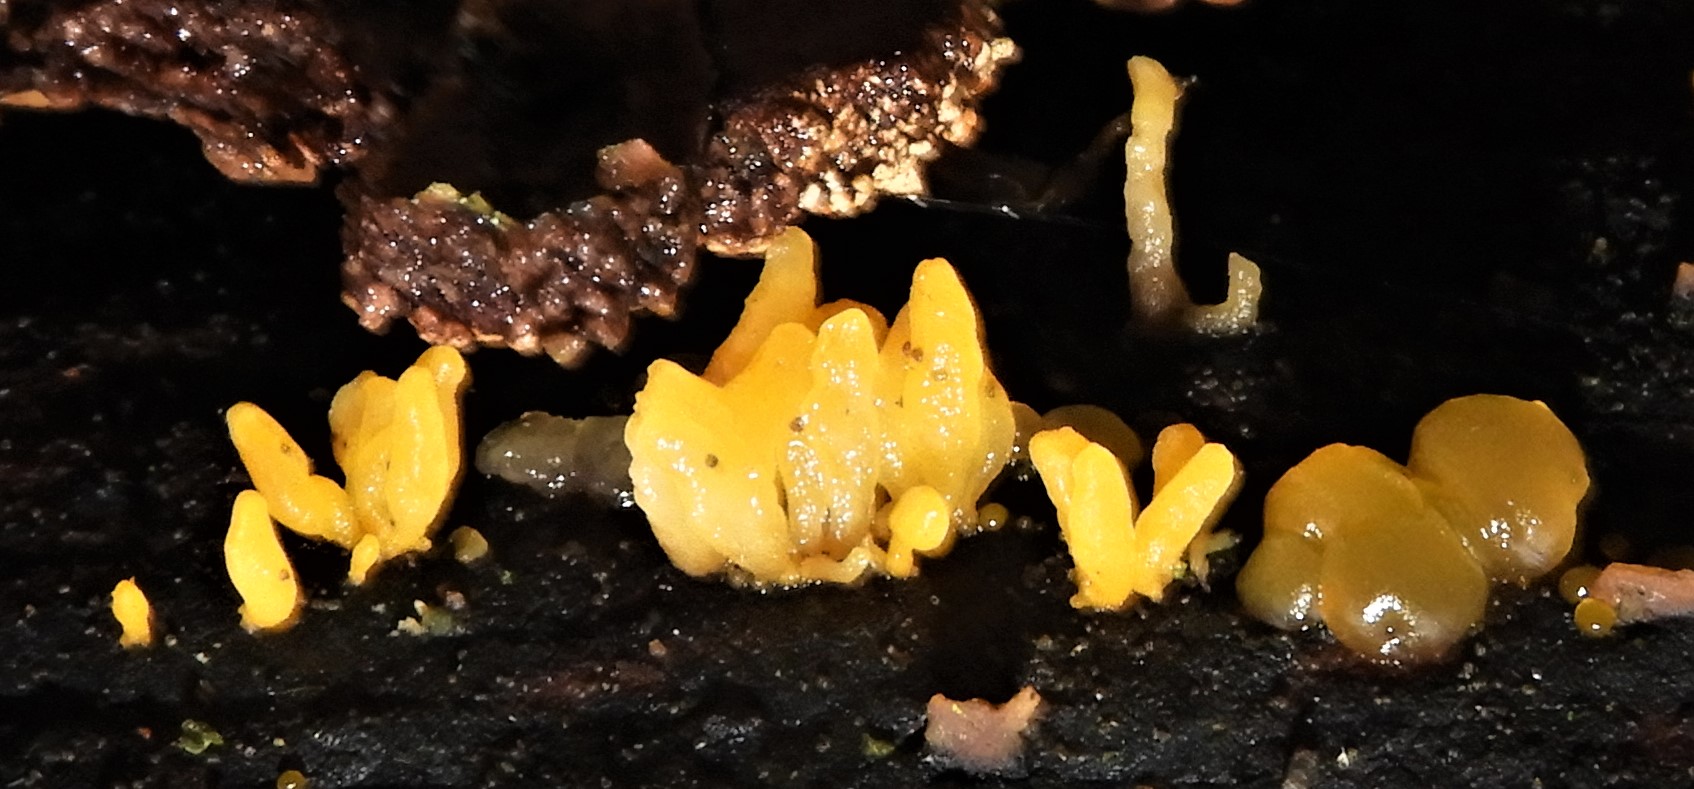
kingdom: Fungi
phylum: Basidiomycota
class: Dacrymycetes
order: Dacrymycetales
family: Dacrymycetaceae
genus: Calocera
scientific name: Calocera cornea
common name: liden guldgaffel
